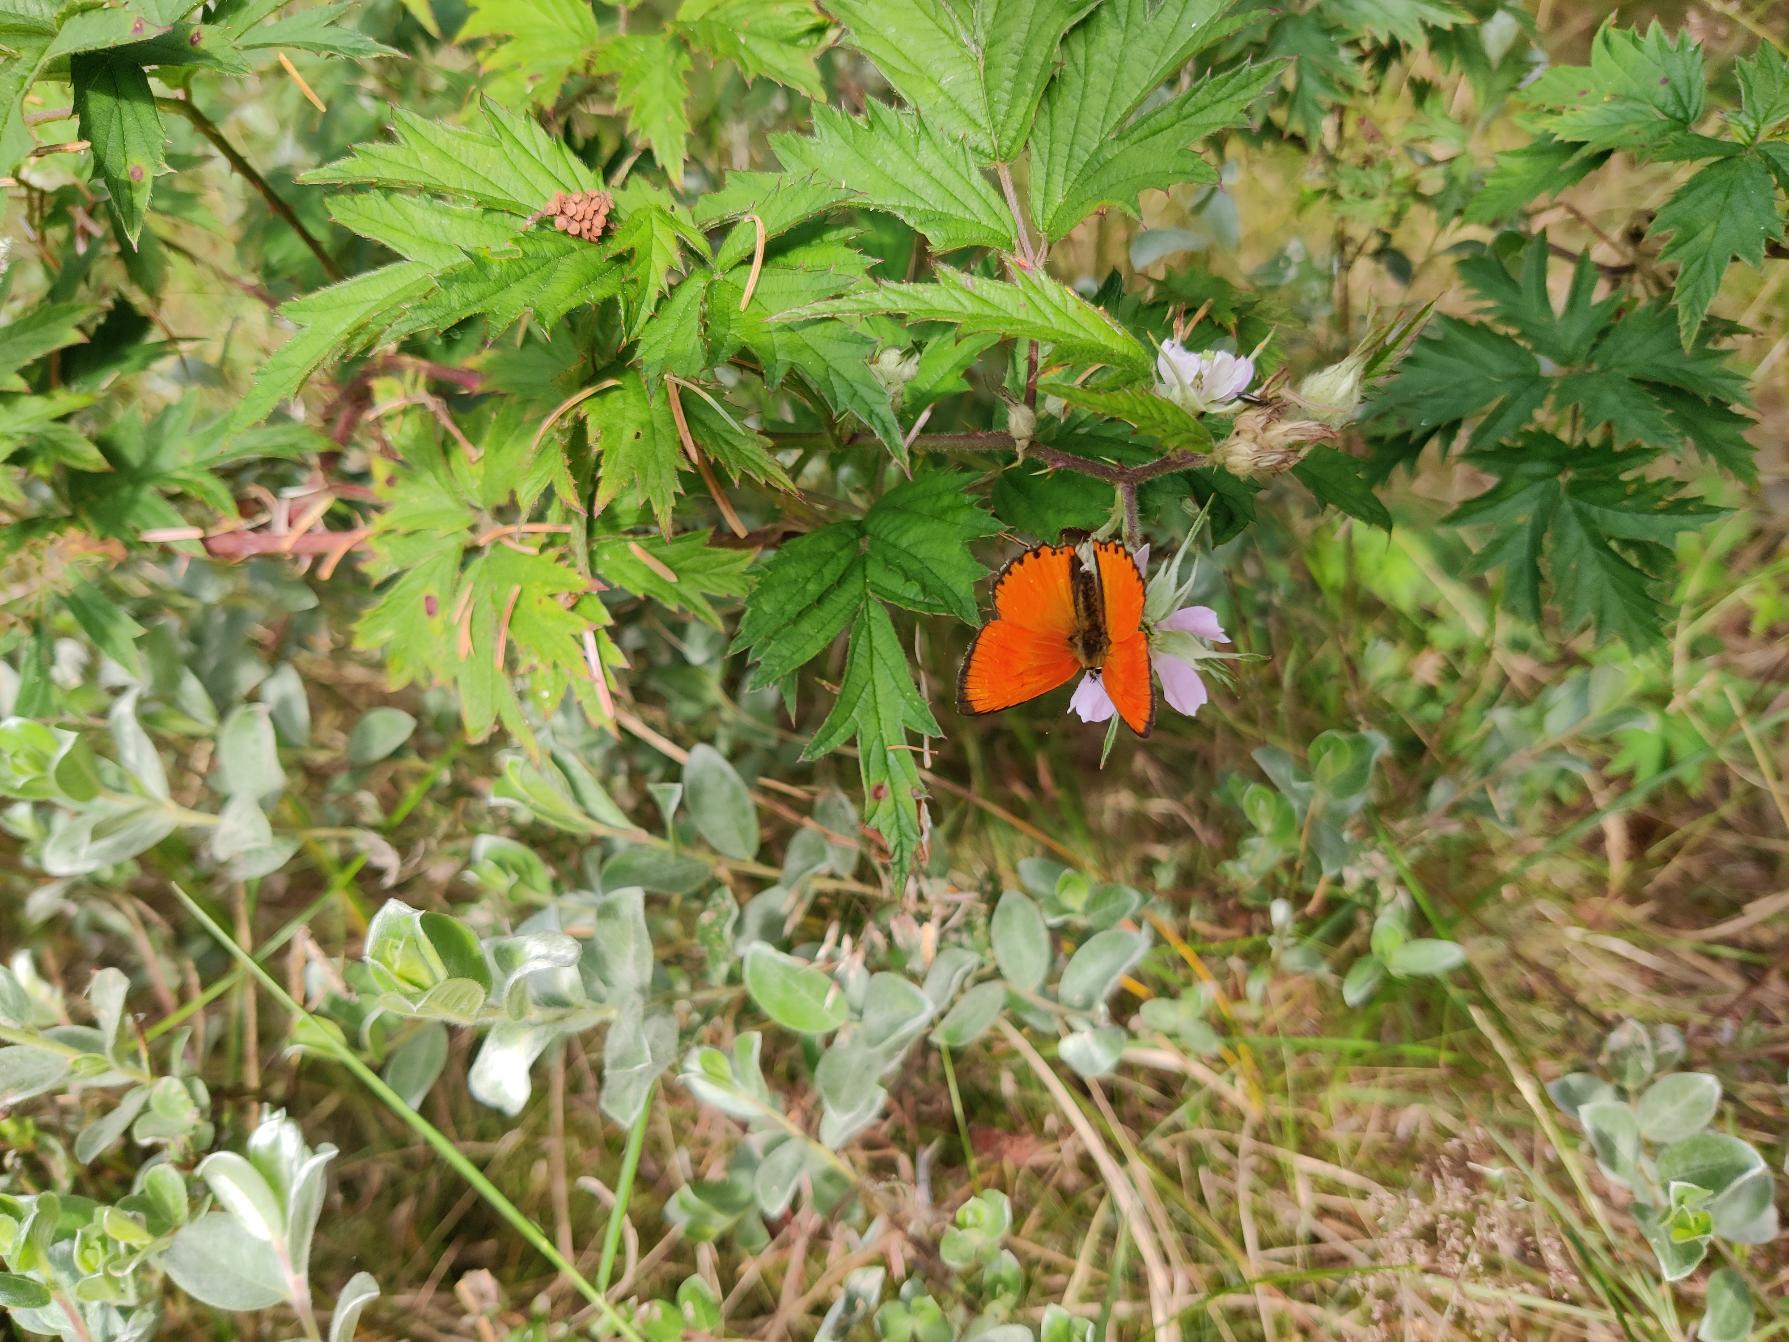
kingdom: Animalia
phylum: Arthropoda
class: Insecta
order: Lepidoptera
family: Lycaenidae
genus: Lycaena
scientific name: Lycaena virgaureae
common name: Dukatsommerfugl
